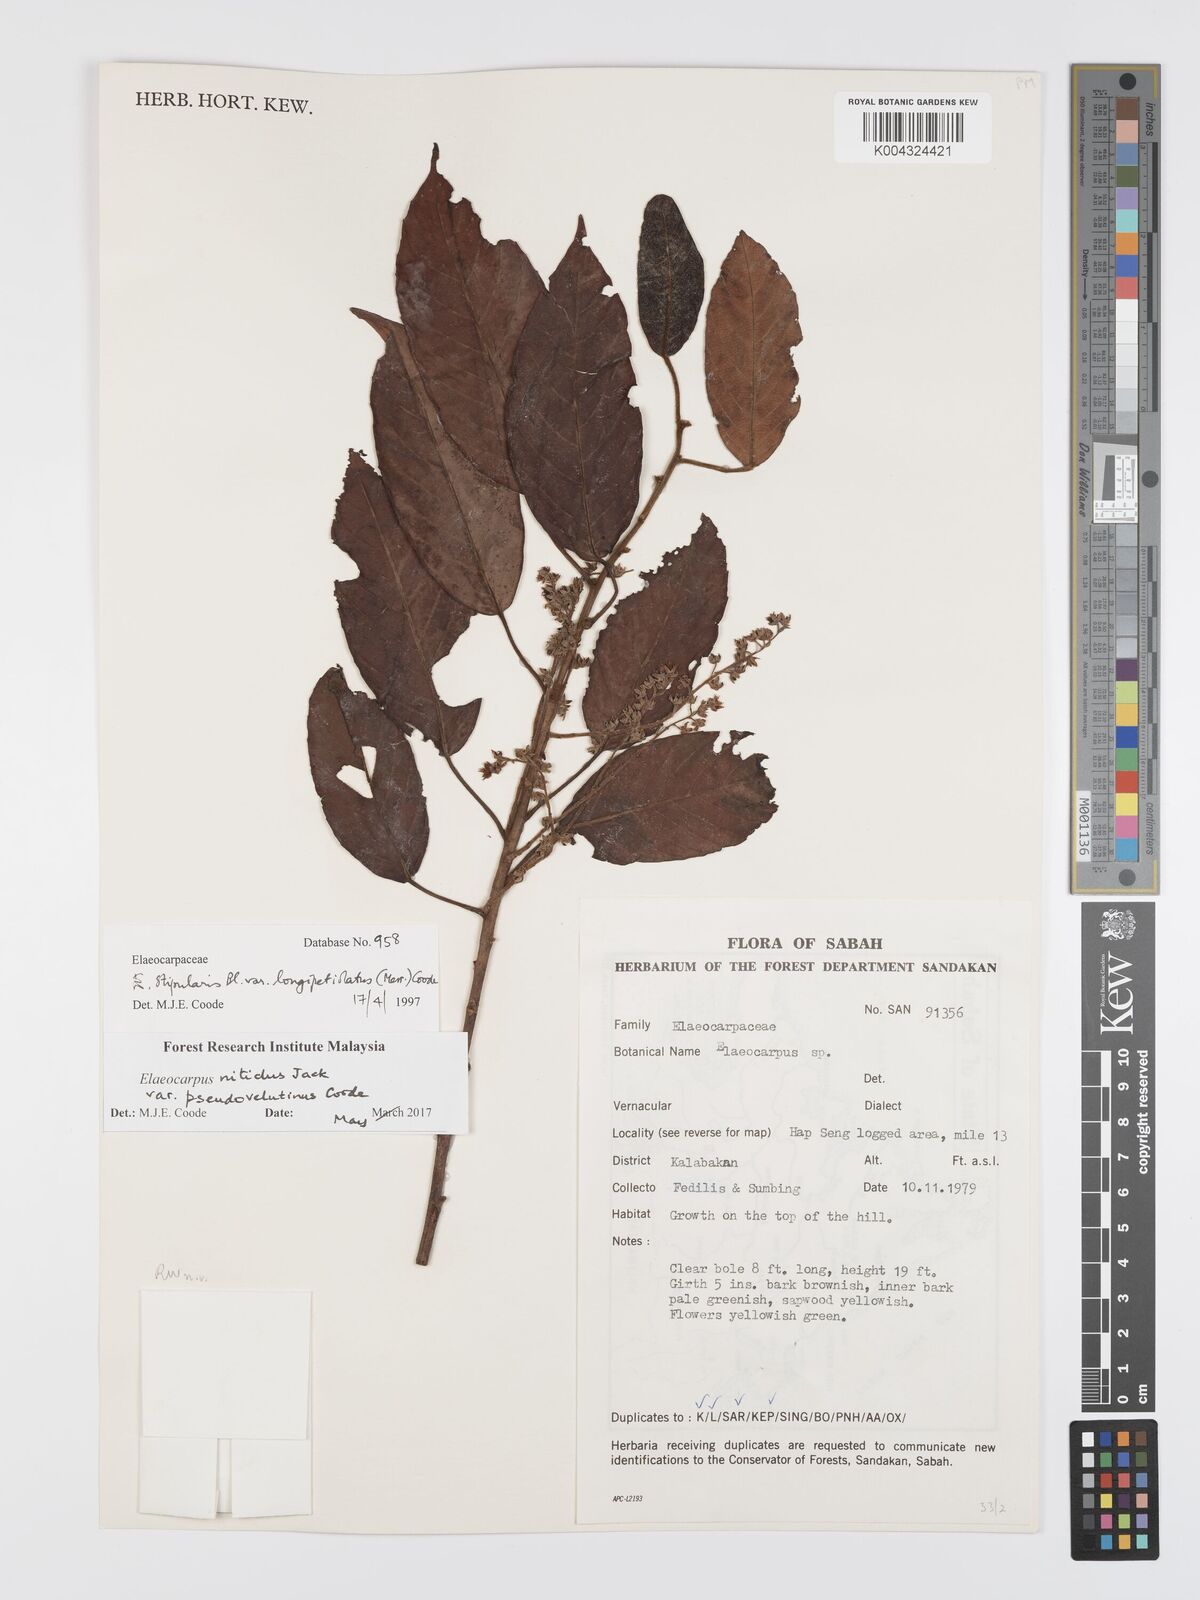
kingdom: Plantae
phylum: Tracheophyta
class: Magnoliopsida
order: Oxalidales
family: Elaeocarpaceae
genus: Elaeocarpus
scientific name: Elaeocarpus nitidus
